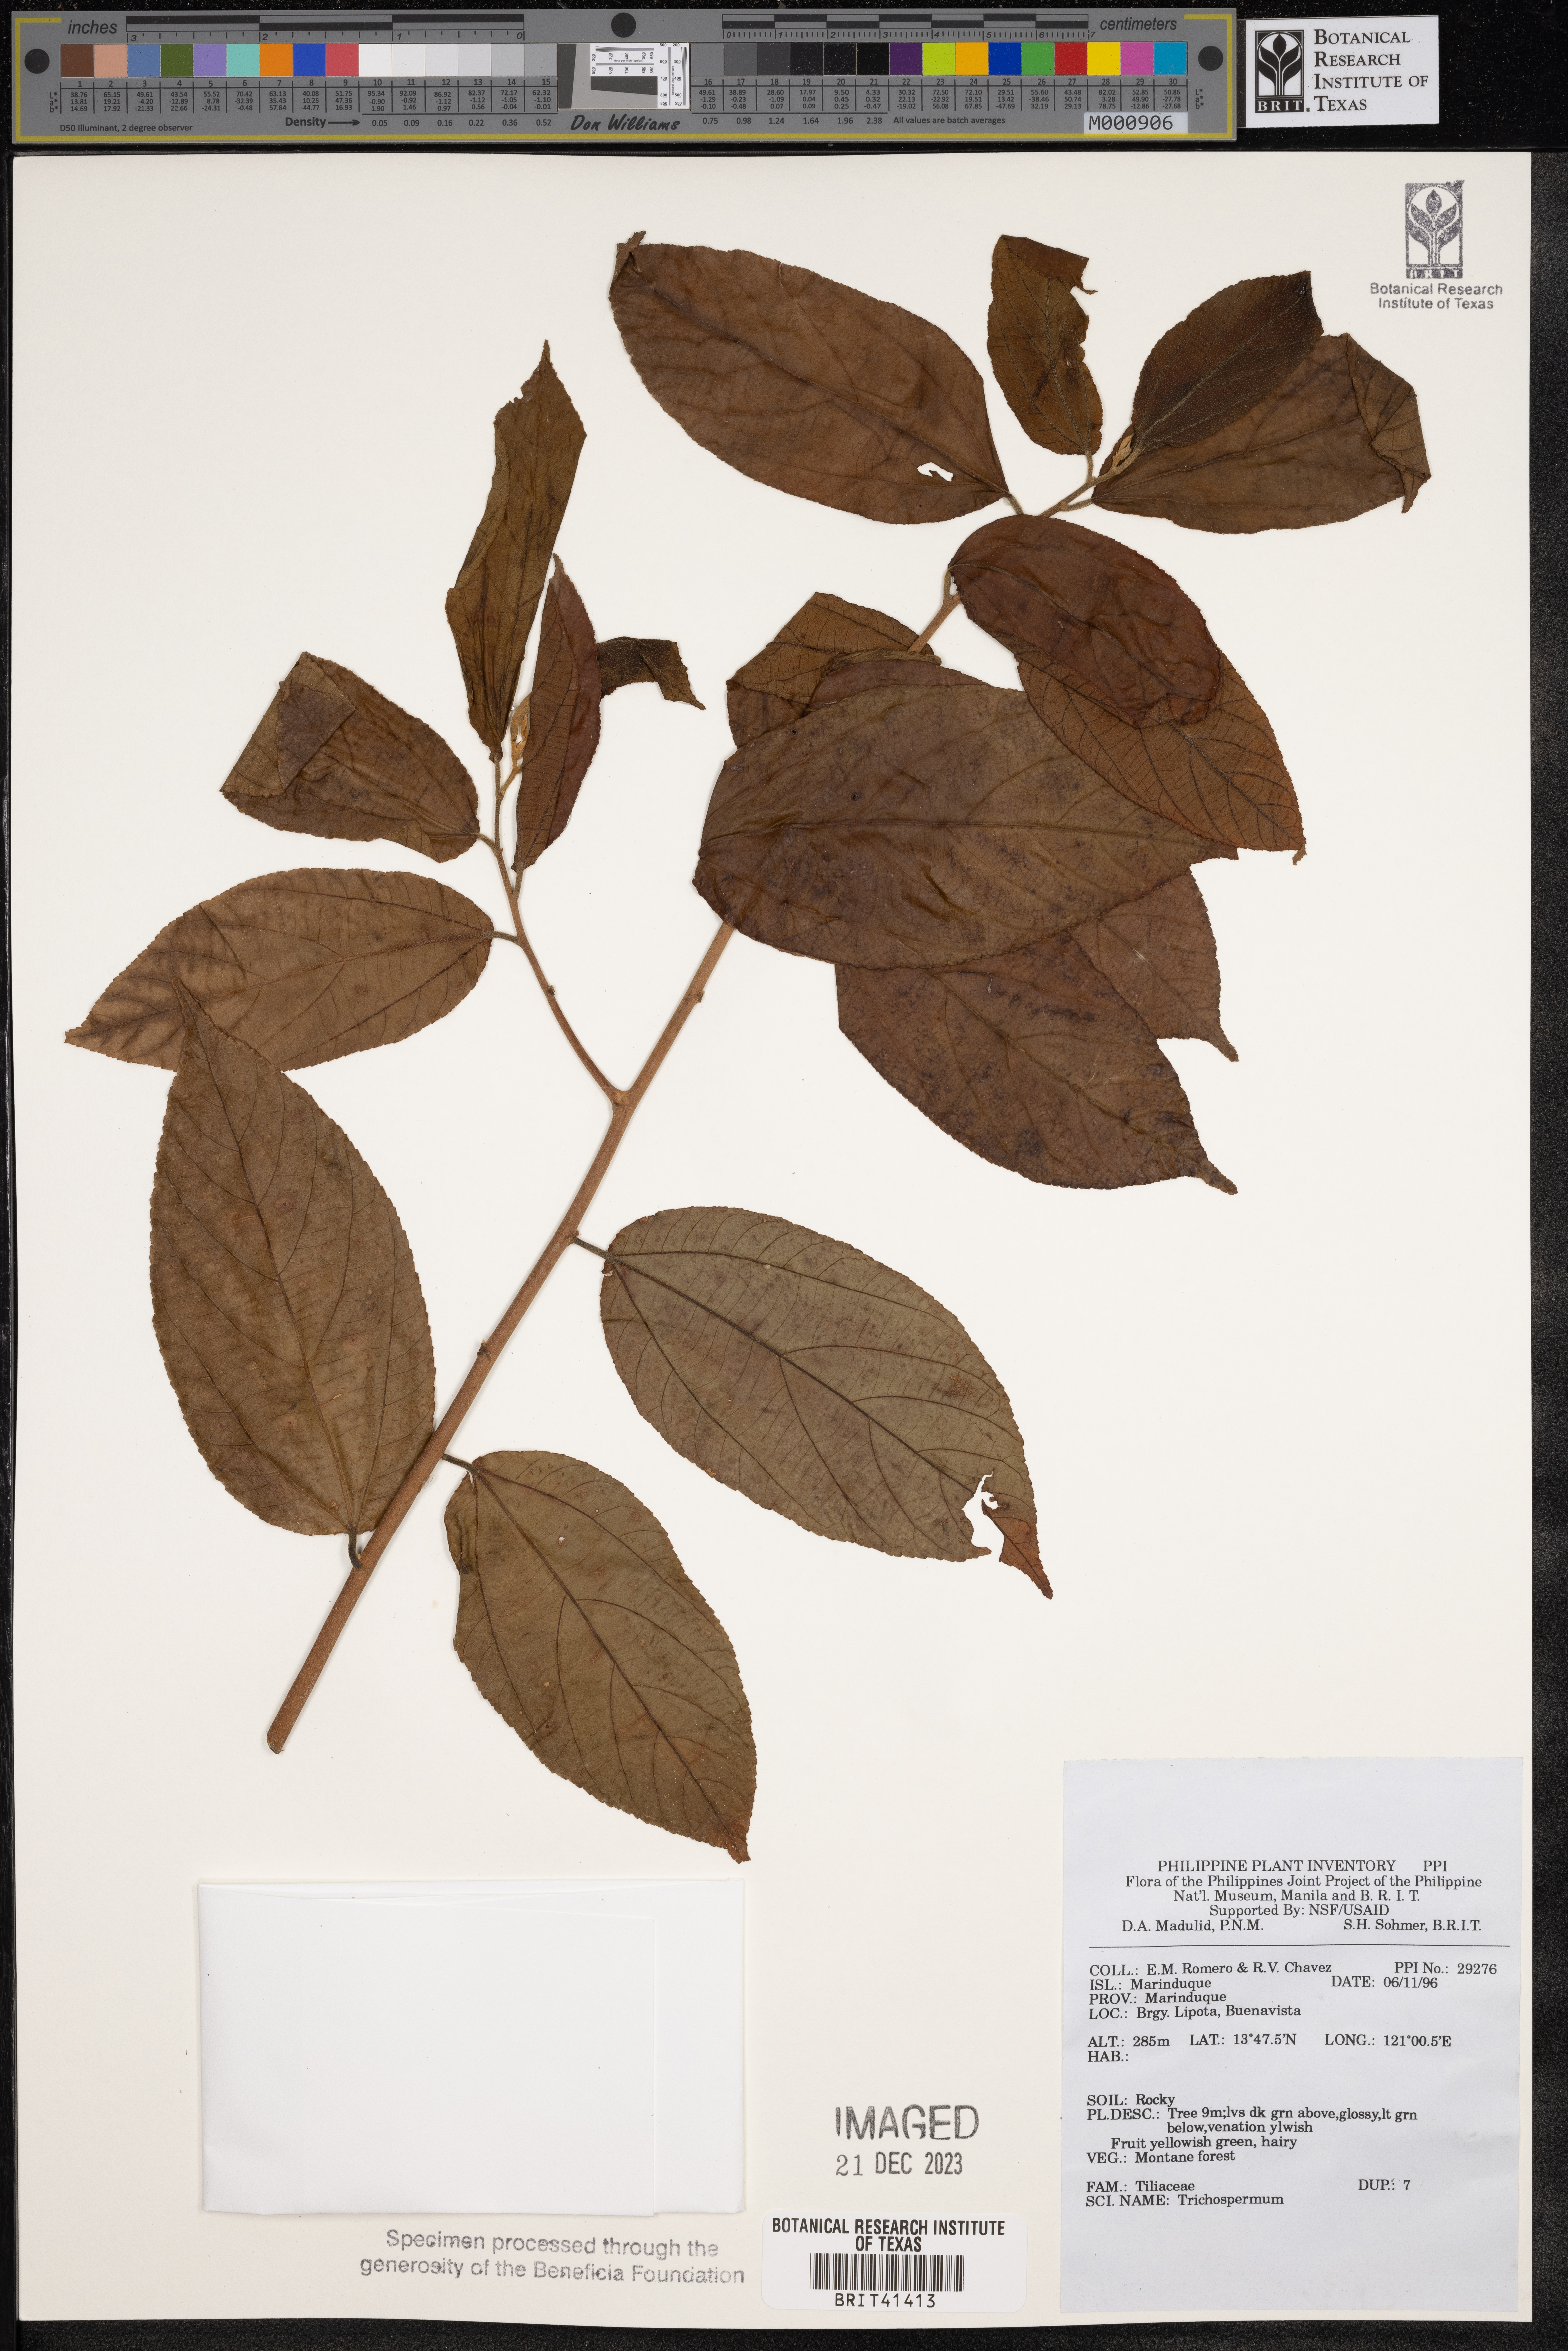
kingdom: Plantae
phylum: Tracheophyta
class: Magnoliopsida
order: Malvales
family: Malvaceae
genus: Trichospermum
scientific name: Trichospermum
